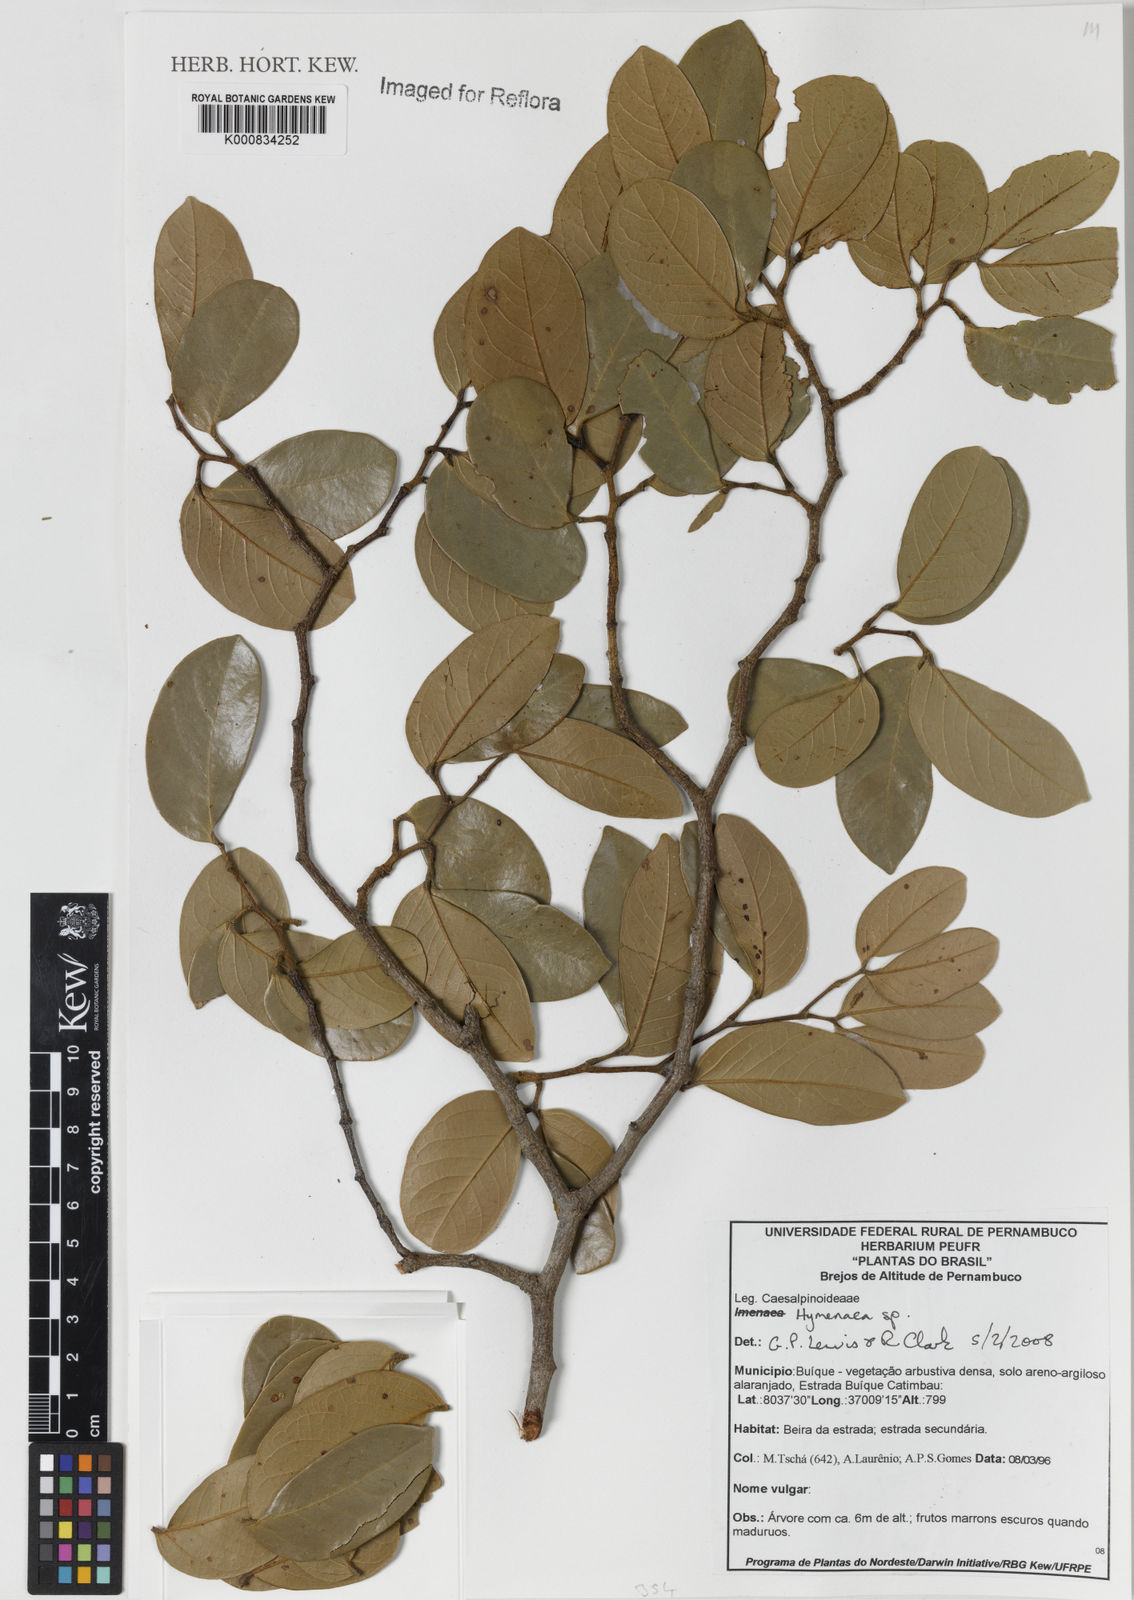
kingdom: Plantae
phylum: Tracheophyta
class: Magnoliopsida
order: Fabales
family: Fabaceae
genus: Hymenaea
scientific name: Hymenaea
